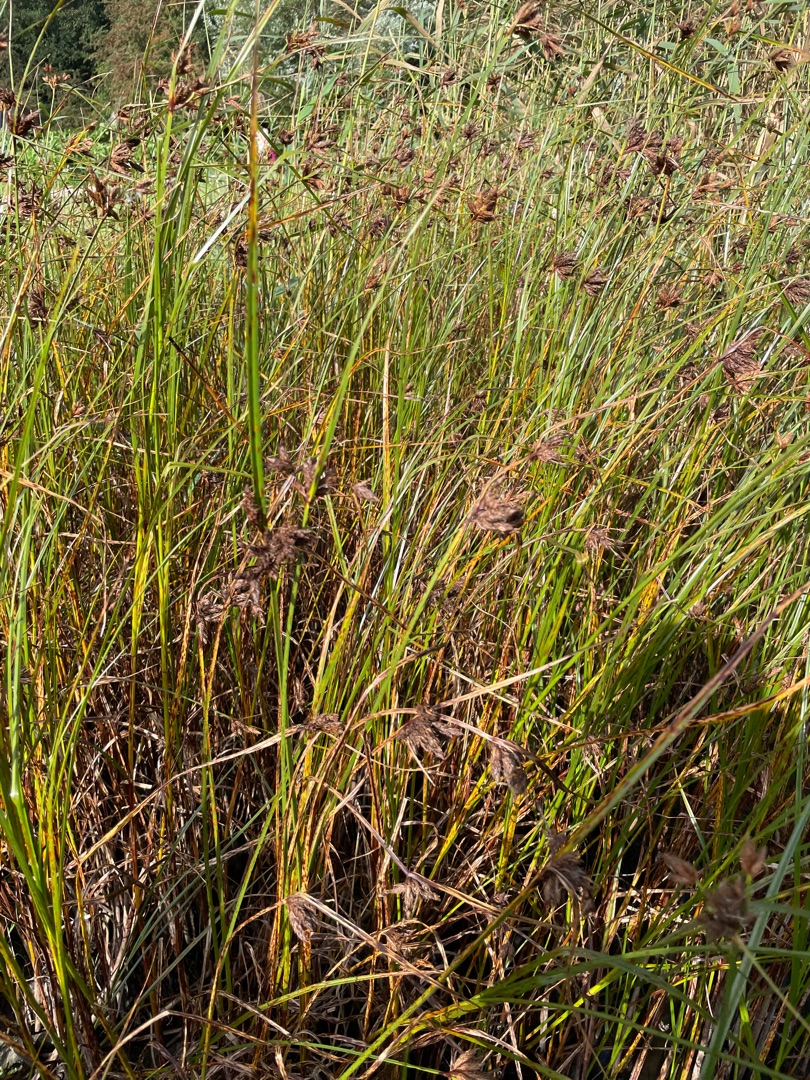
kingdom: Plantae
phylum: Tracheophyta
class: Liliopsida
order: Poales
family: Cyperaceae
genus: Bolboschoenus
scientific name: Bolboschoenus maritimus
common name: Strand-kogleaks
